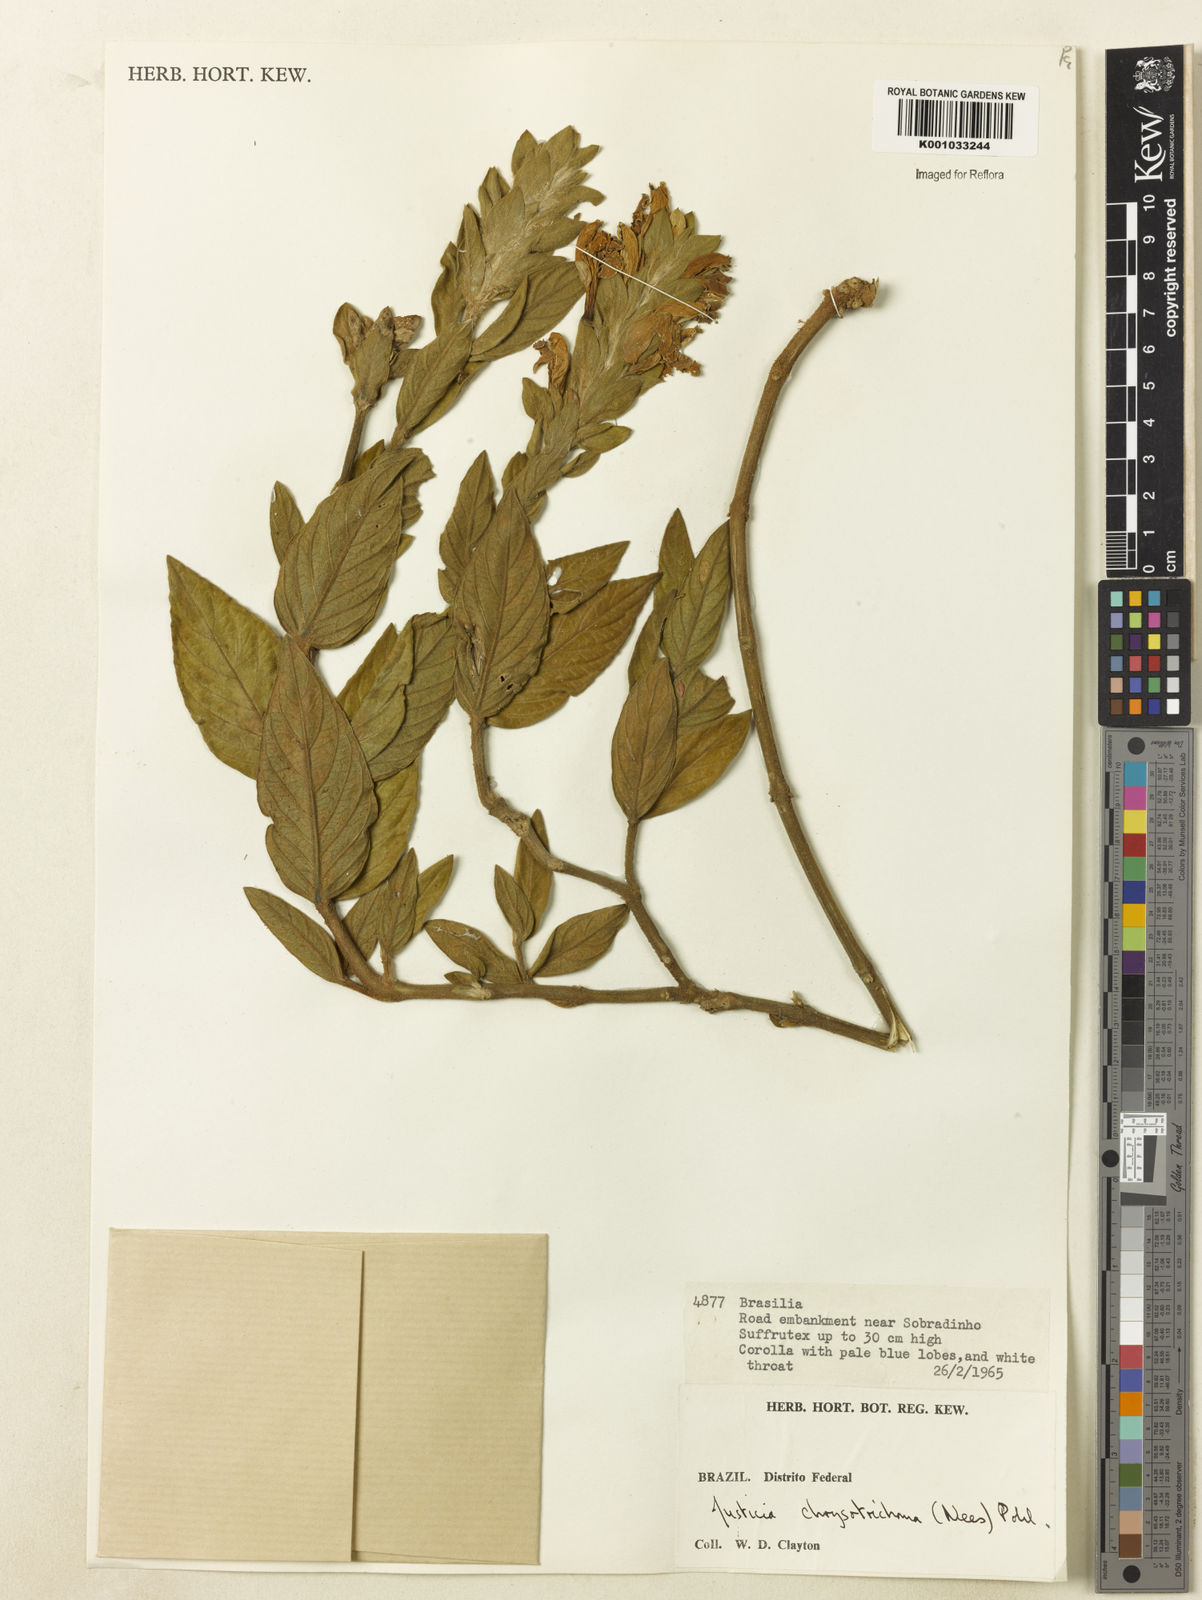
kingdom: Plantae
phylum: Tracheophyta
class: Magnoliopsida
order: Lamiales
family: Acanthaceae
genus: Justicia
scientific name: Justicia chrysotrichoma
